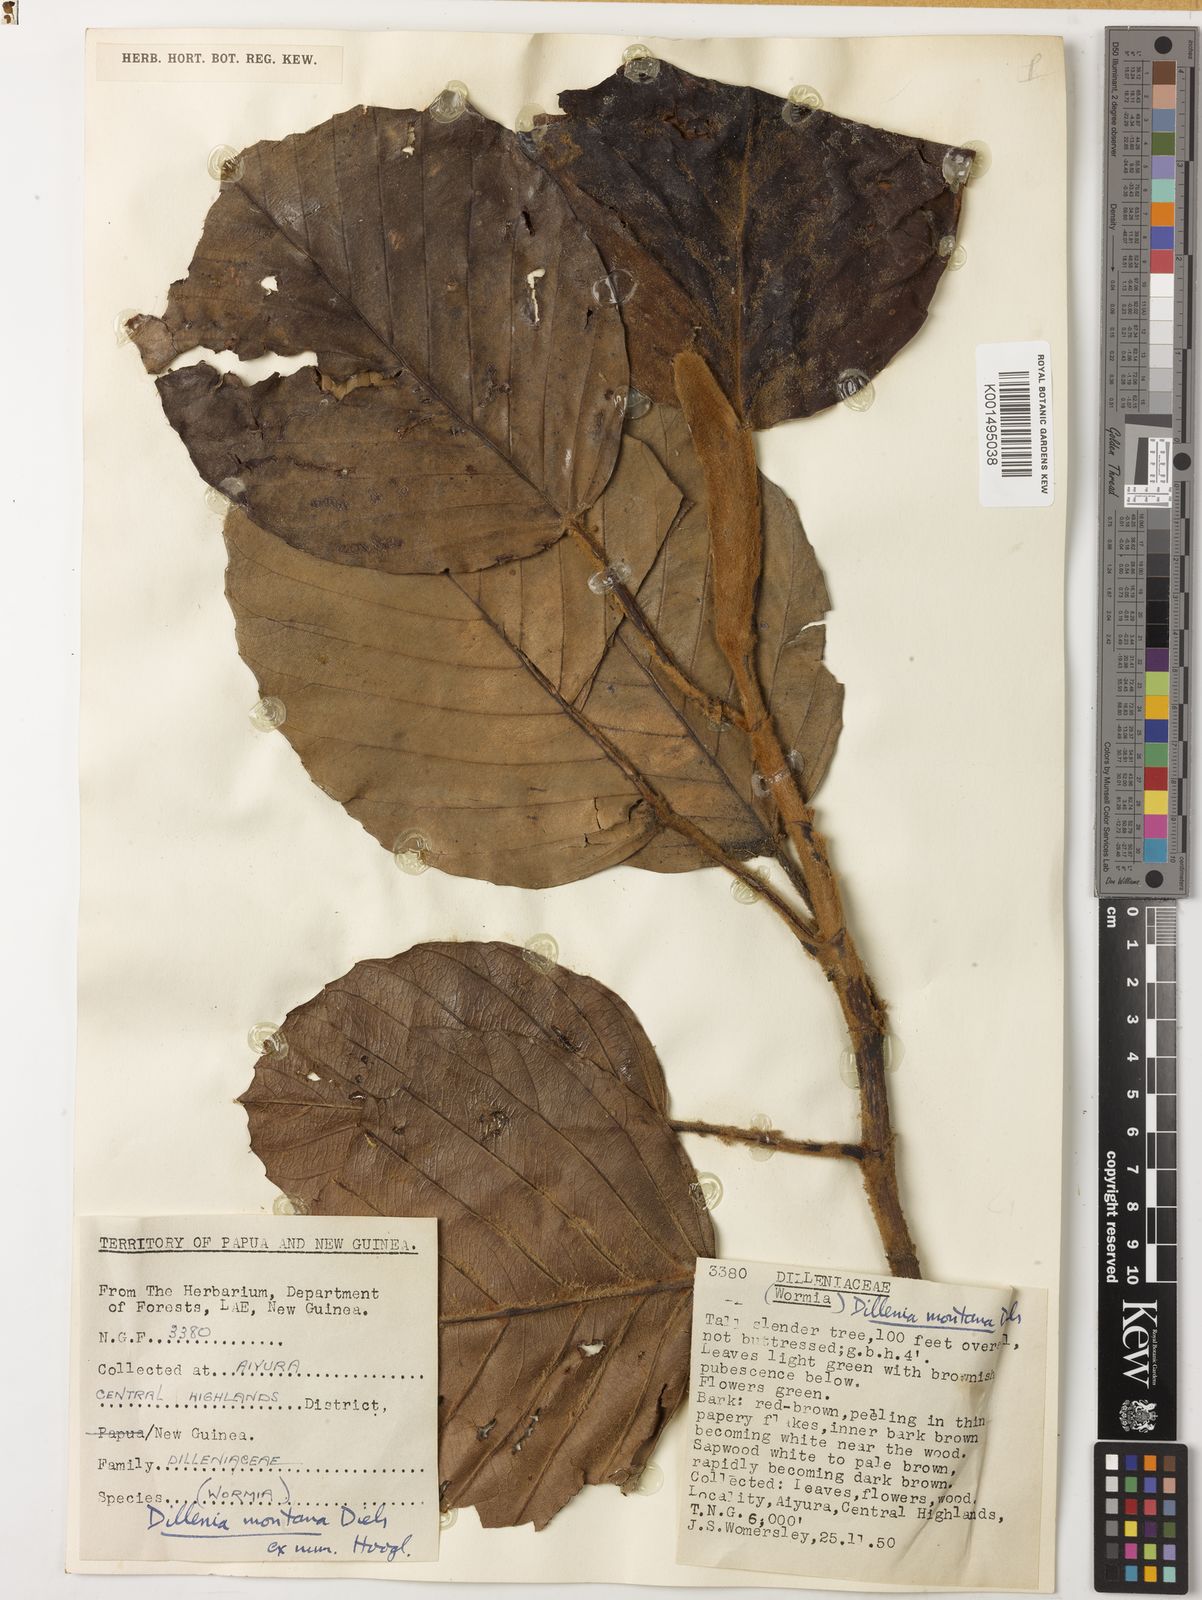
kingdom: Plantae
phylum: Tracheophyta
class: Magnoliopsida
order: Dilleniales
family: Dilleniaceae
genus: Dillenia
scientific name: Dillenia montana
